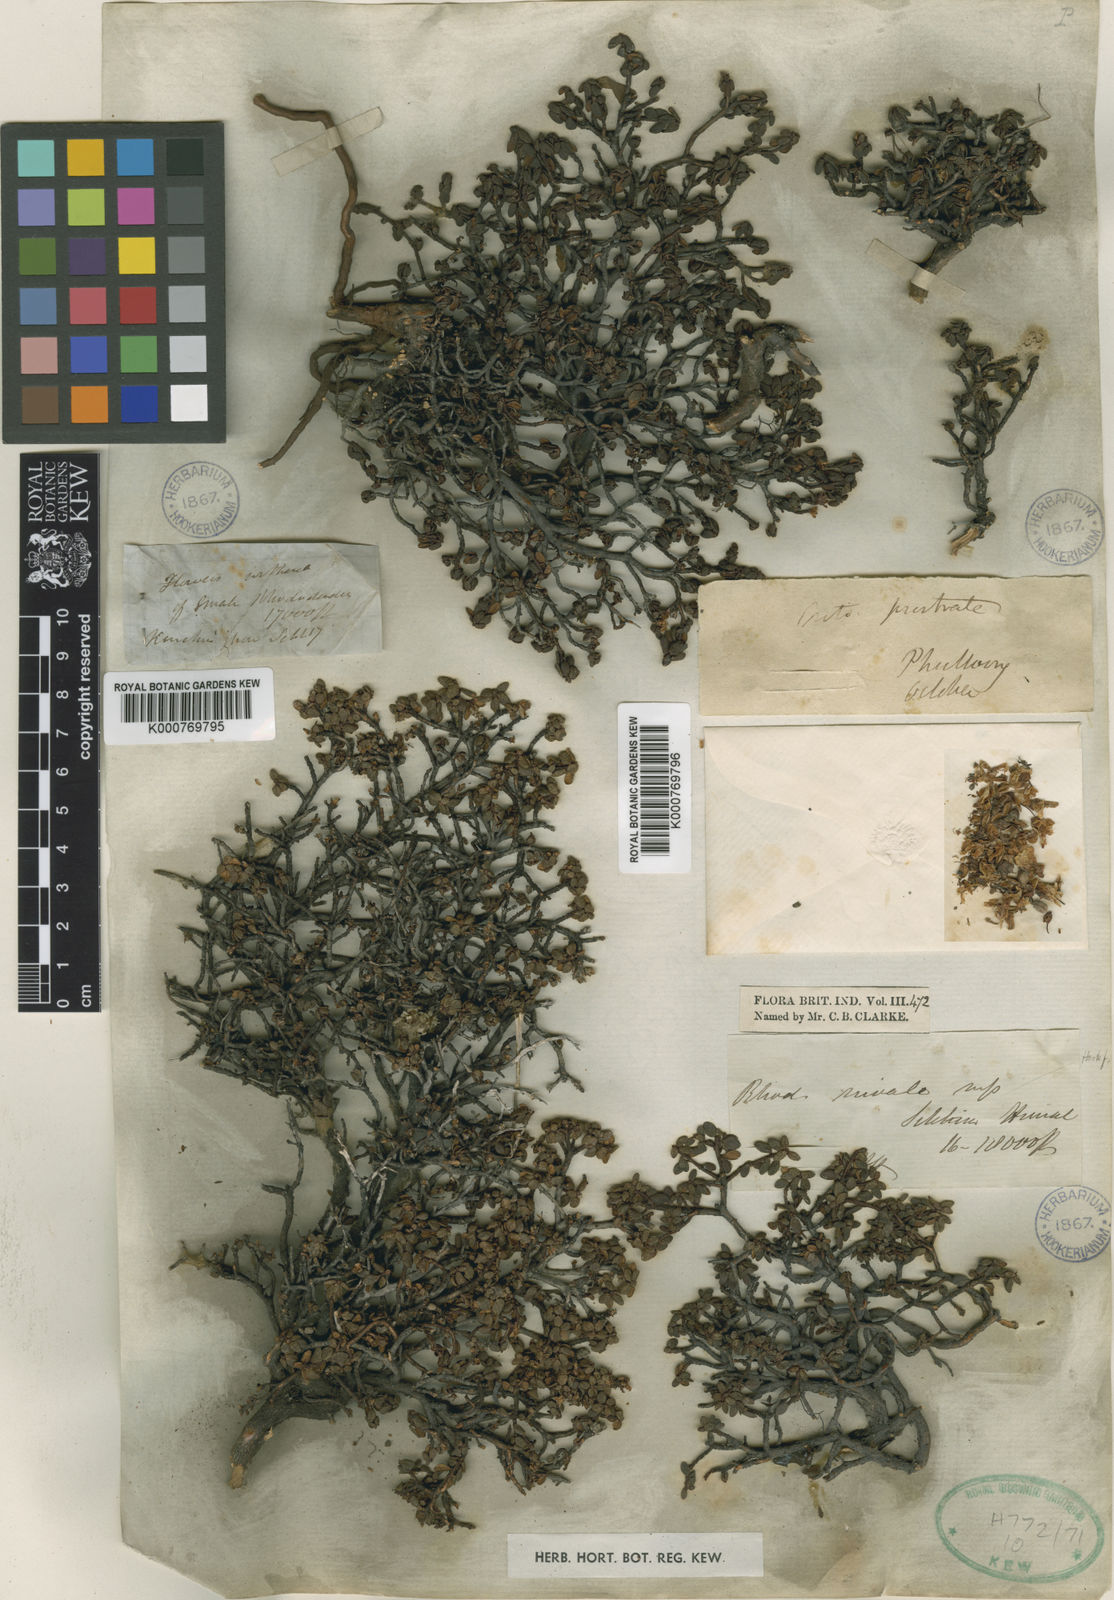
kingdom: Plantae
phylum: Tracheophyta
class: Magnoliopsida
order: Ericales
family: Ericaceae
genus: Rhododendron
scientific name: Rhododendron nivale
